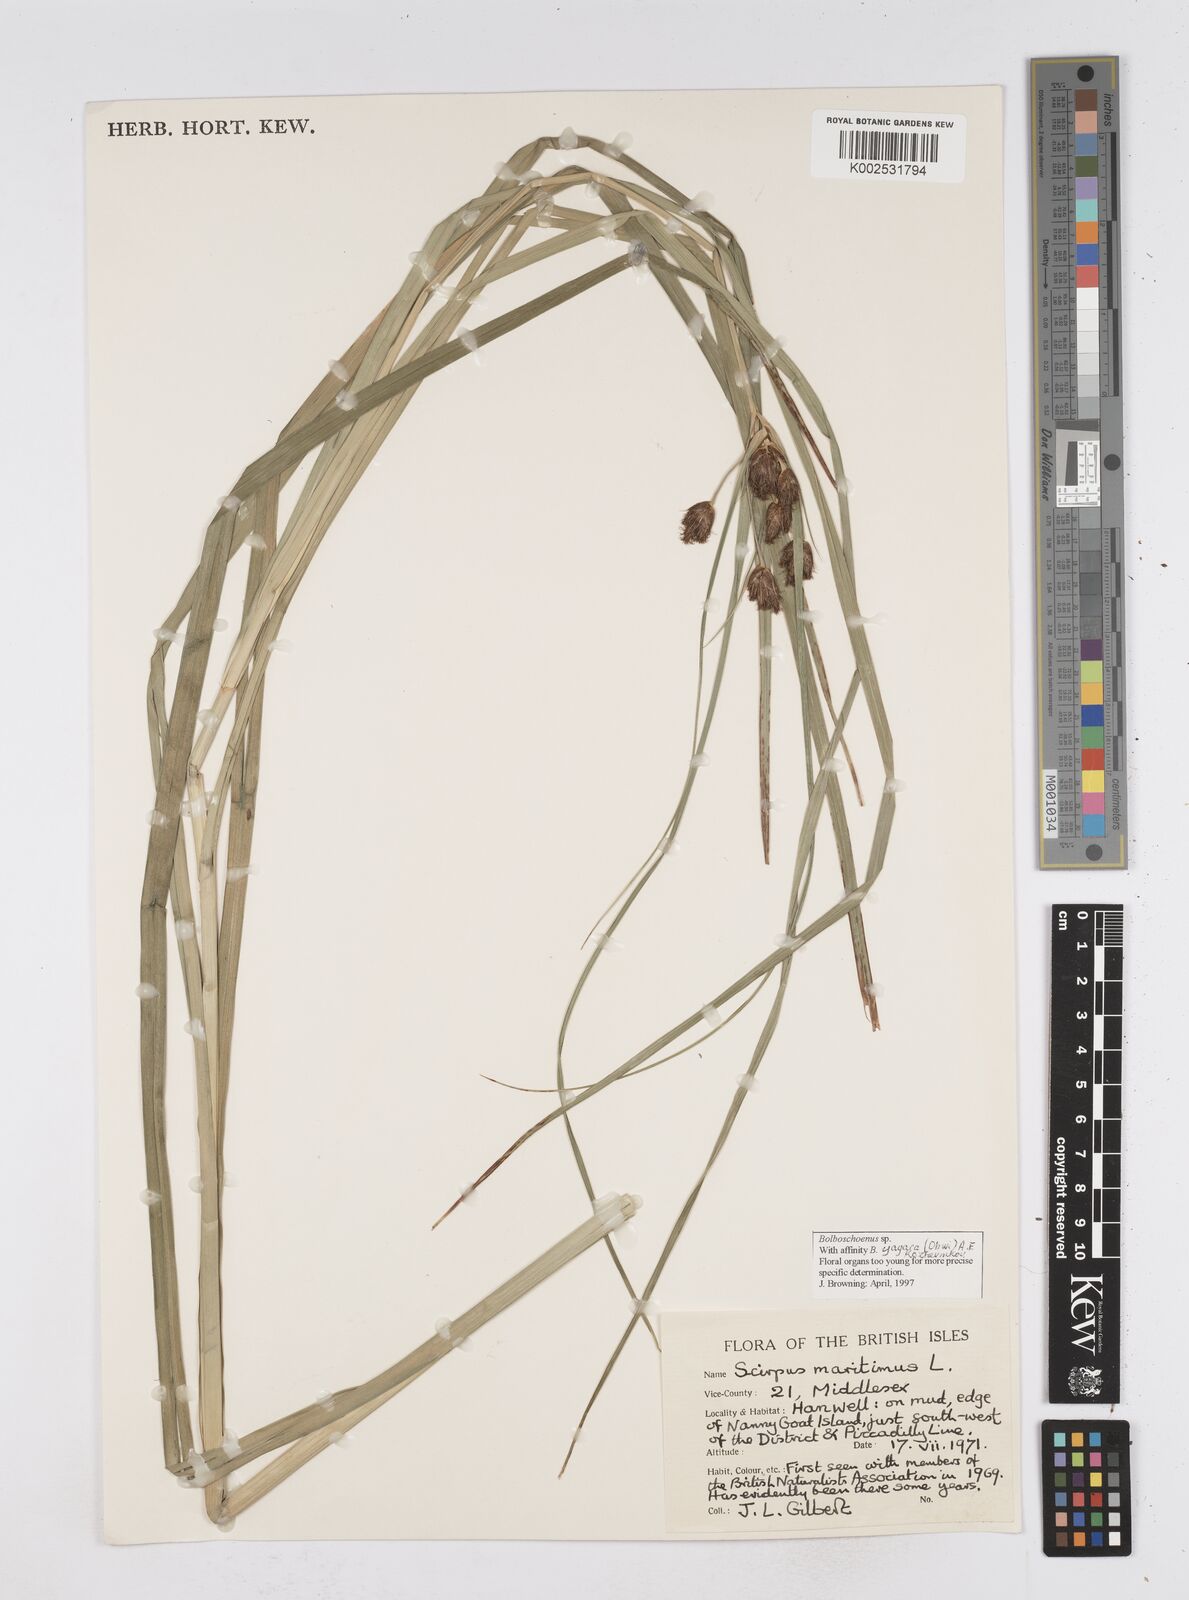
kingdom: Plantae
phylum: Tracheophyta
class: Liliopsida
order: Poales
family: Cyperaceae
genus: Bolboschoenus
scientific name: Bolboschoenus maritimus
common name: Sea club-rush
